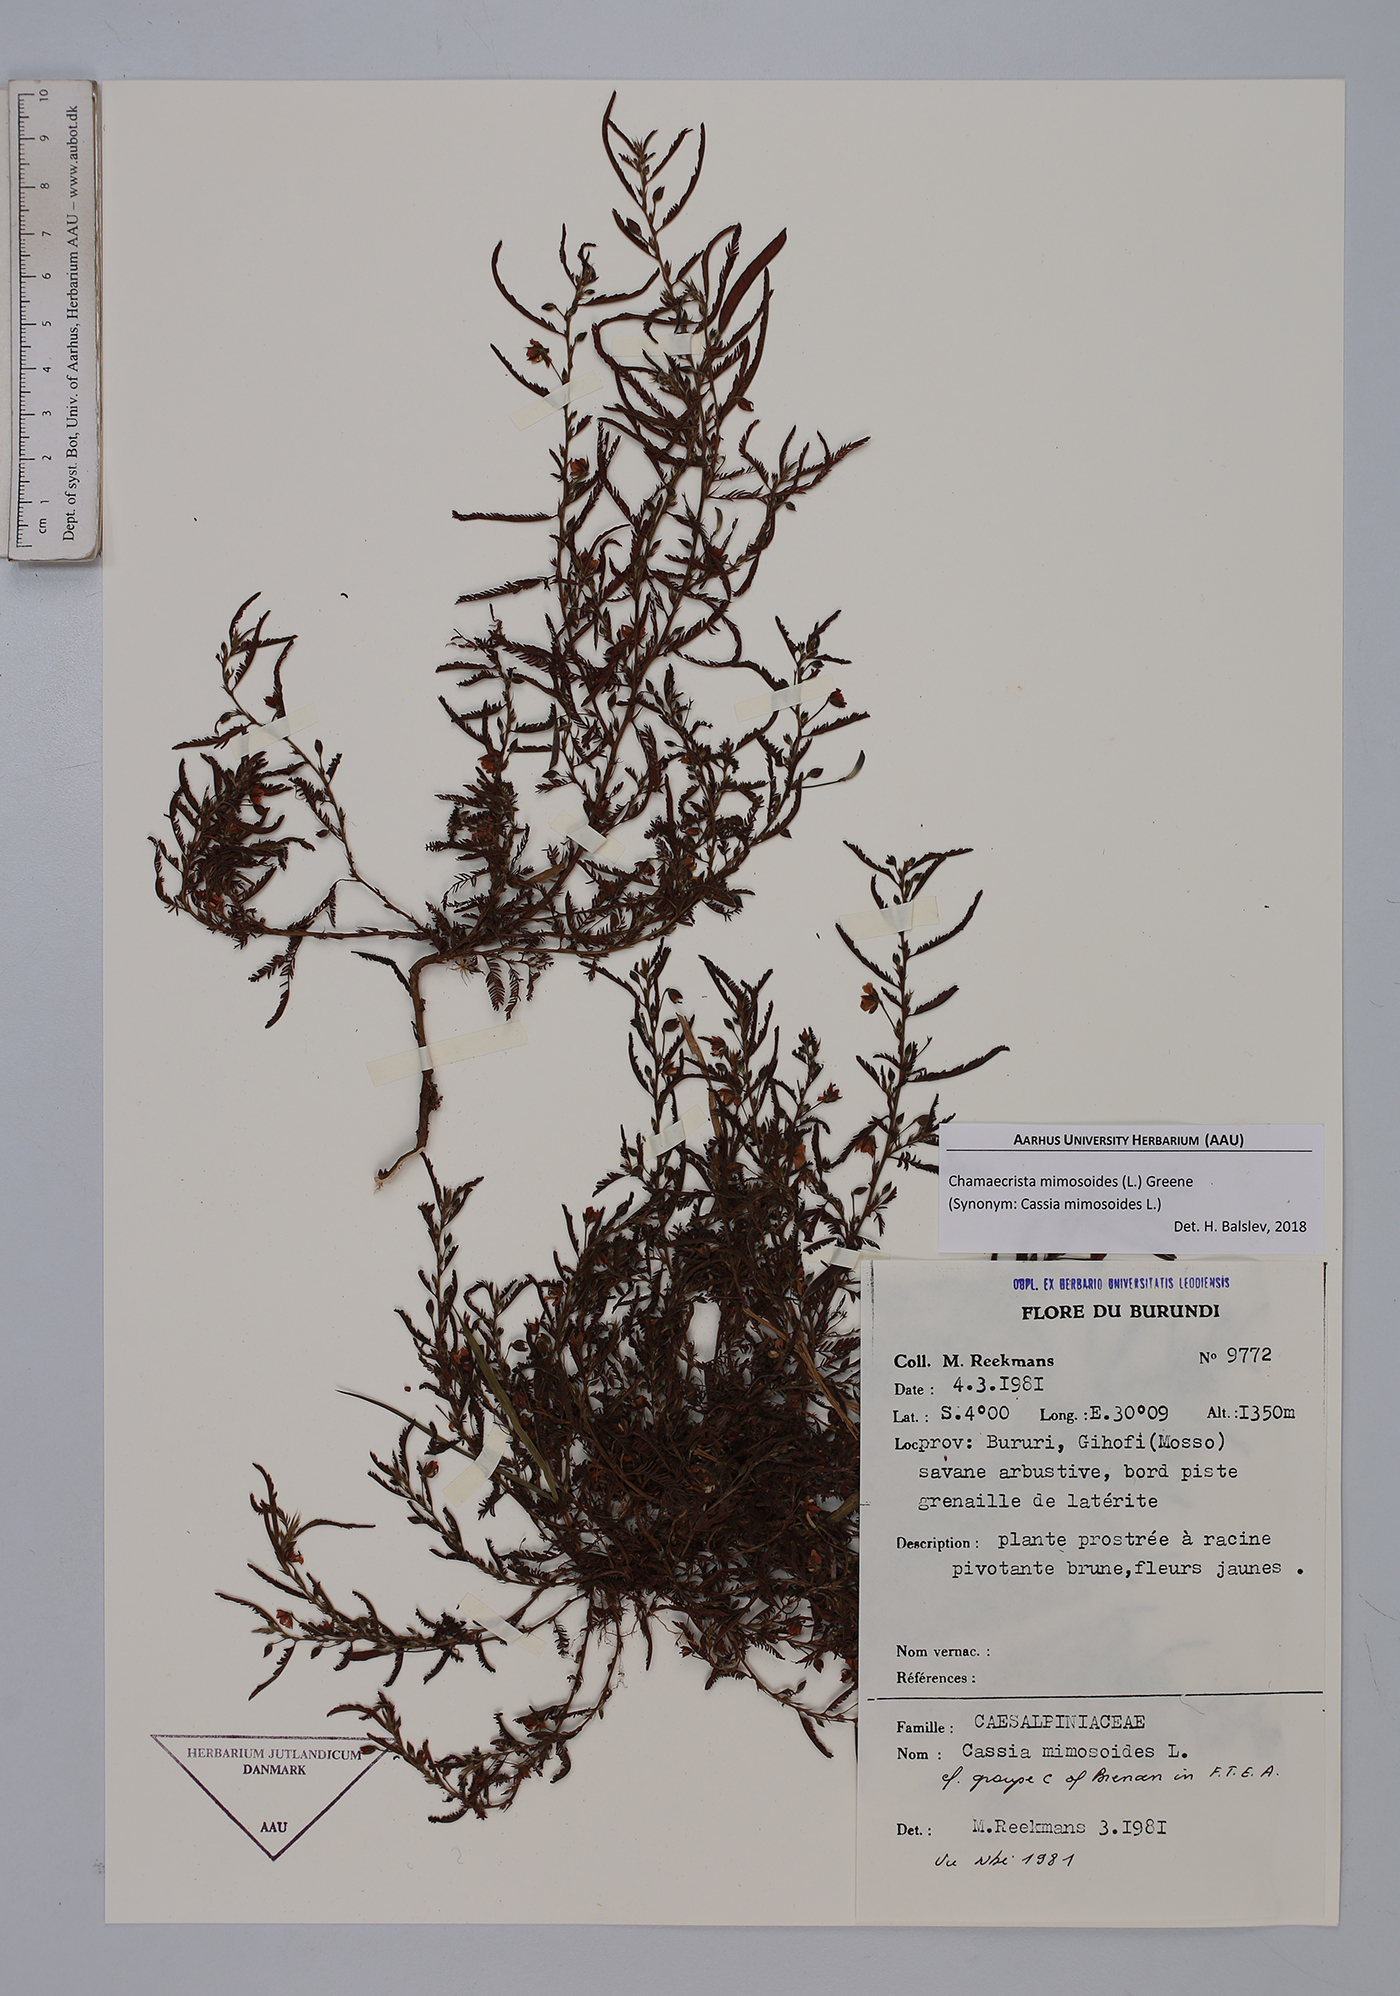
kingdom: Plantae
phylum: Tracheophyta
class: Magnoliopsida
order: Fabales
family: Fabaceae
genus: Chamaecrista
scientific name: Chamaecrista mimosoides
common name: Fish-bone cassia
